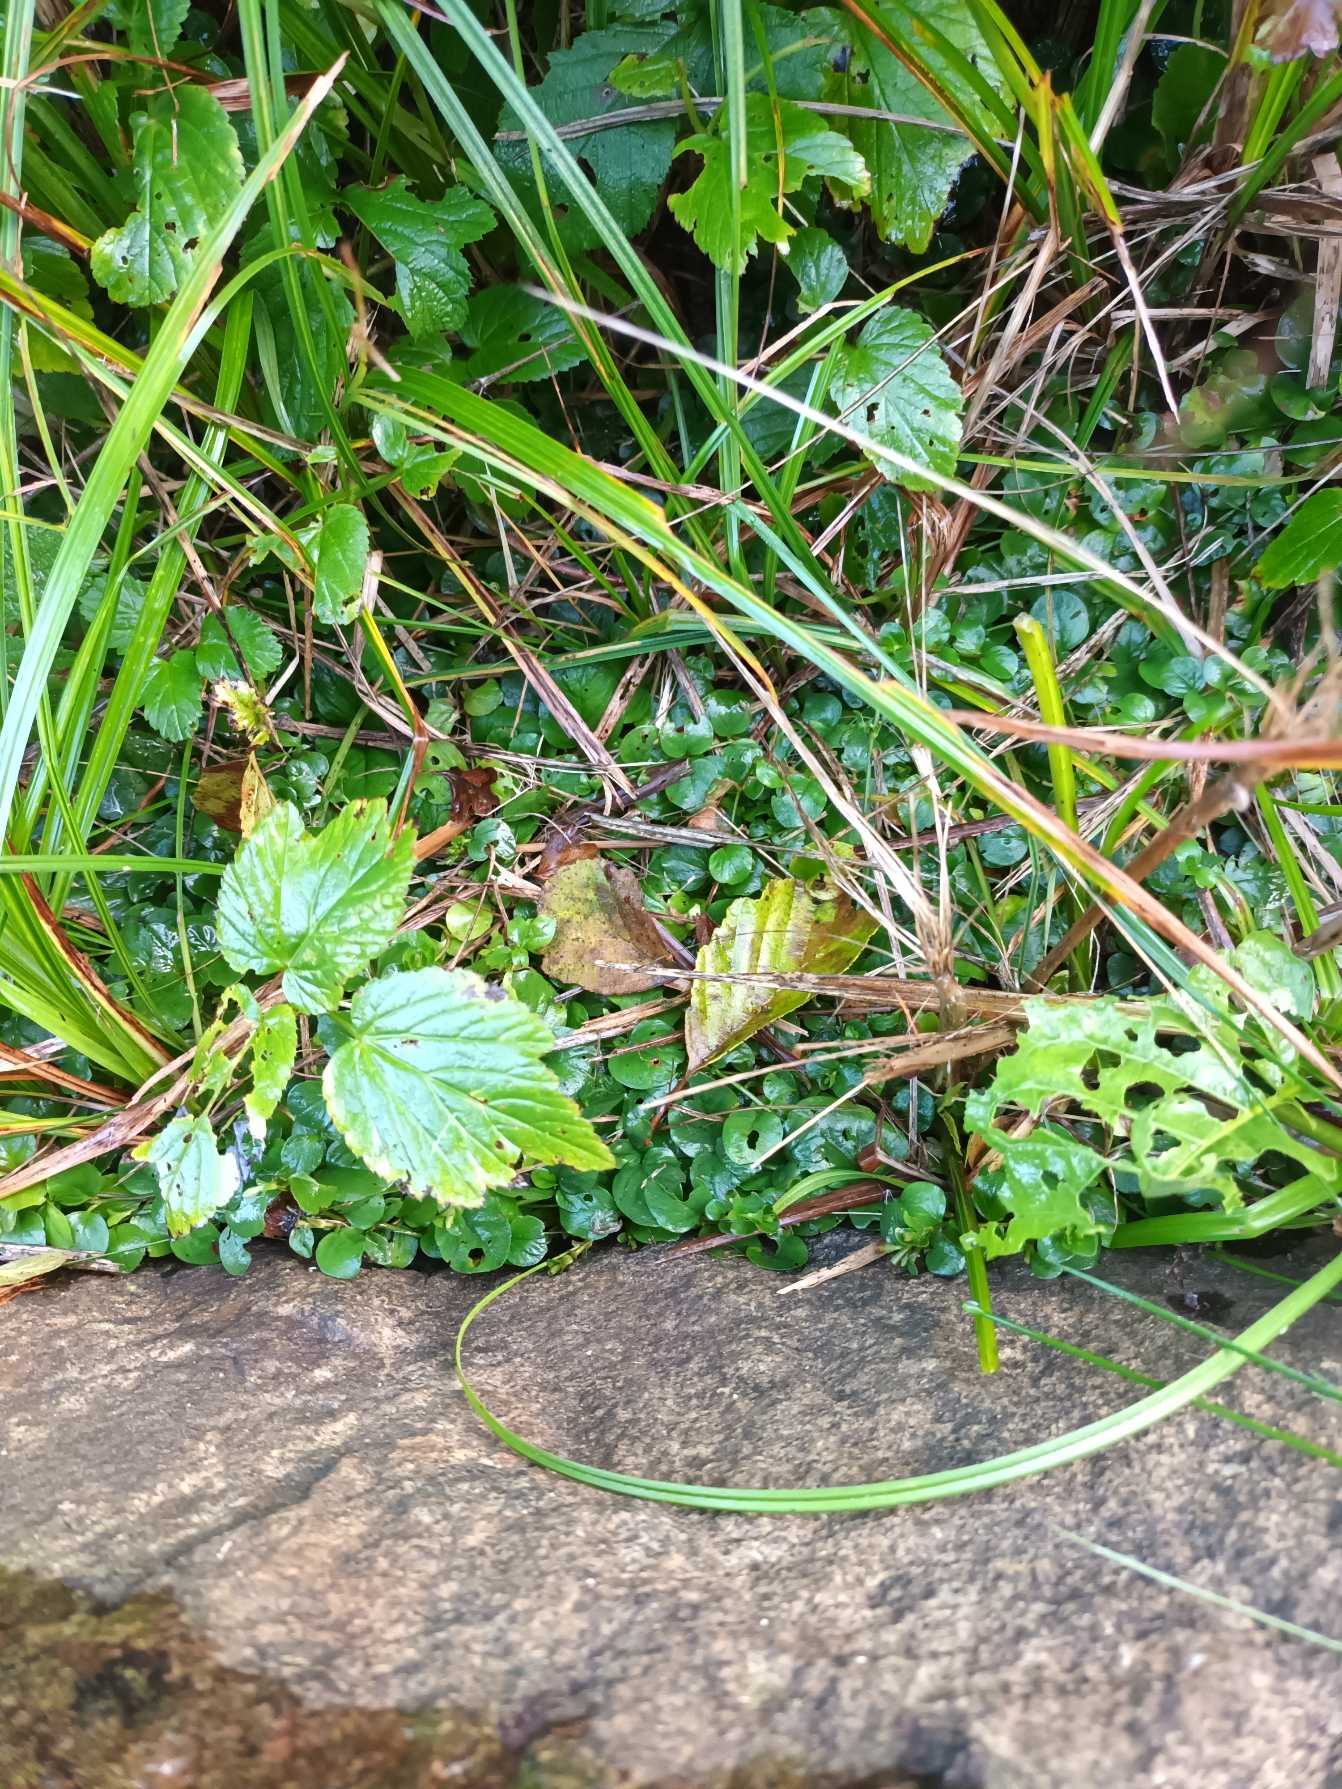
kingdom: Plantae
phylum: Tracheophyta
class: Magnoliopsida
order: Ericales
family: Primulaceae
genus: Lysimachia
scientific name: Lysimachia nummularia
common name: Pengebladet fredløs
